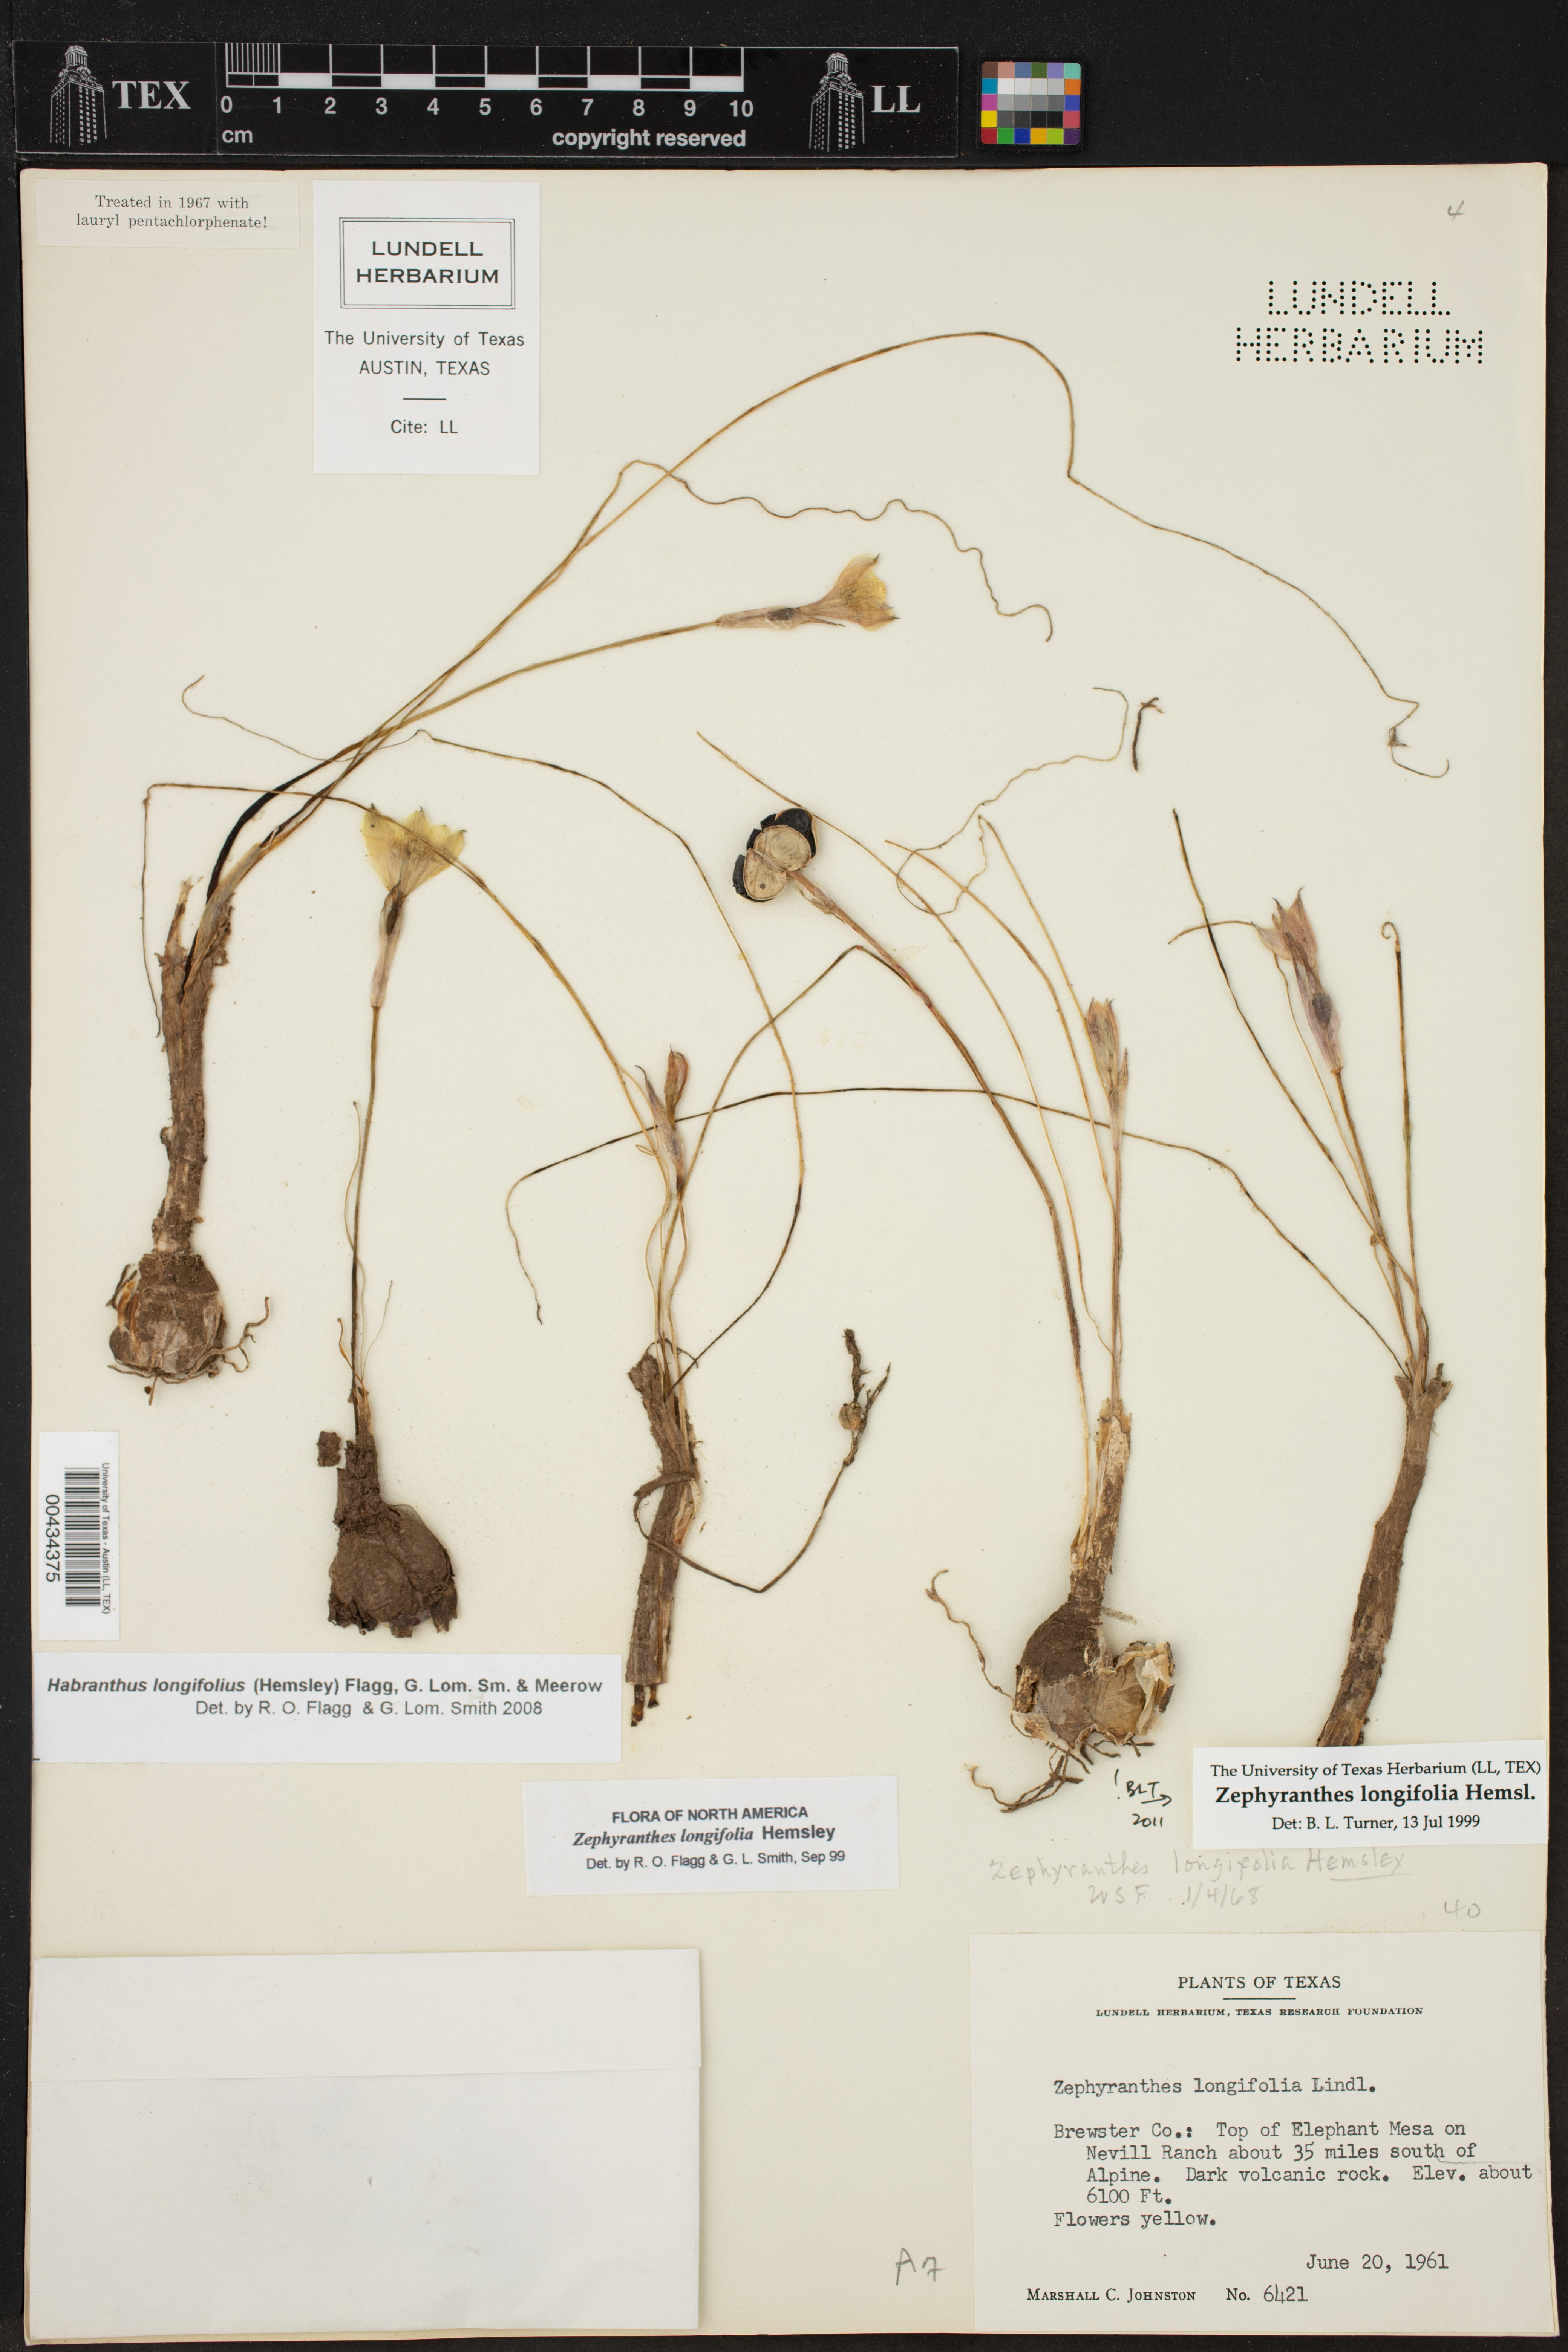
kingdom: Plantae
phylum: Tracheophyta
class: Liliopsida
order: Asparagales
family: Amaryllidaceae
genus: Zephyranthes
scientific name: Zephyranthes longifolia
